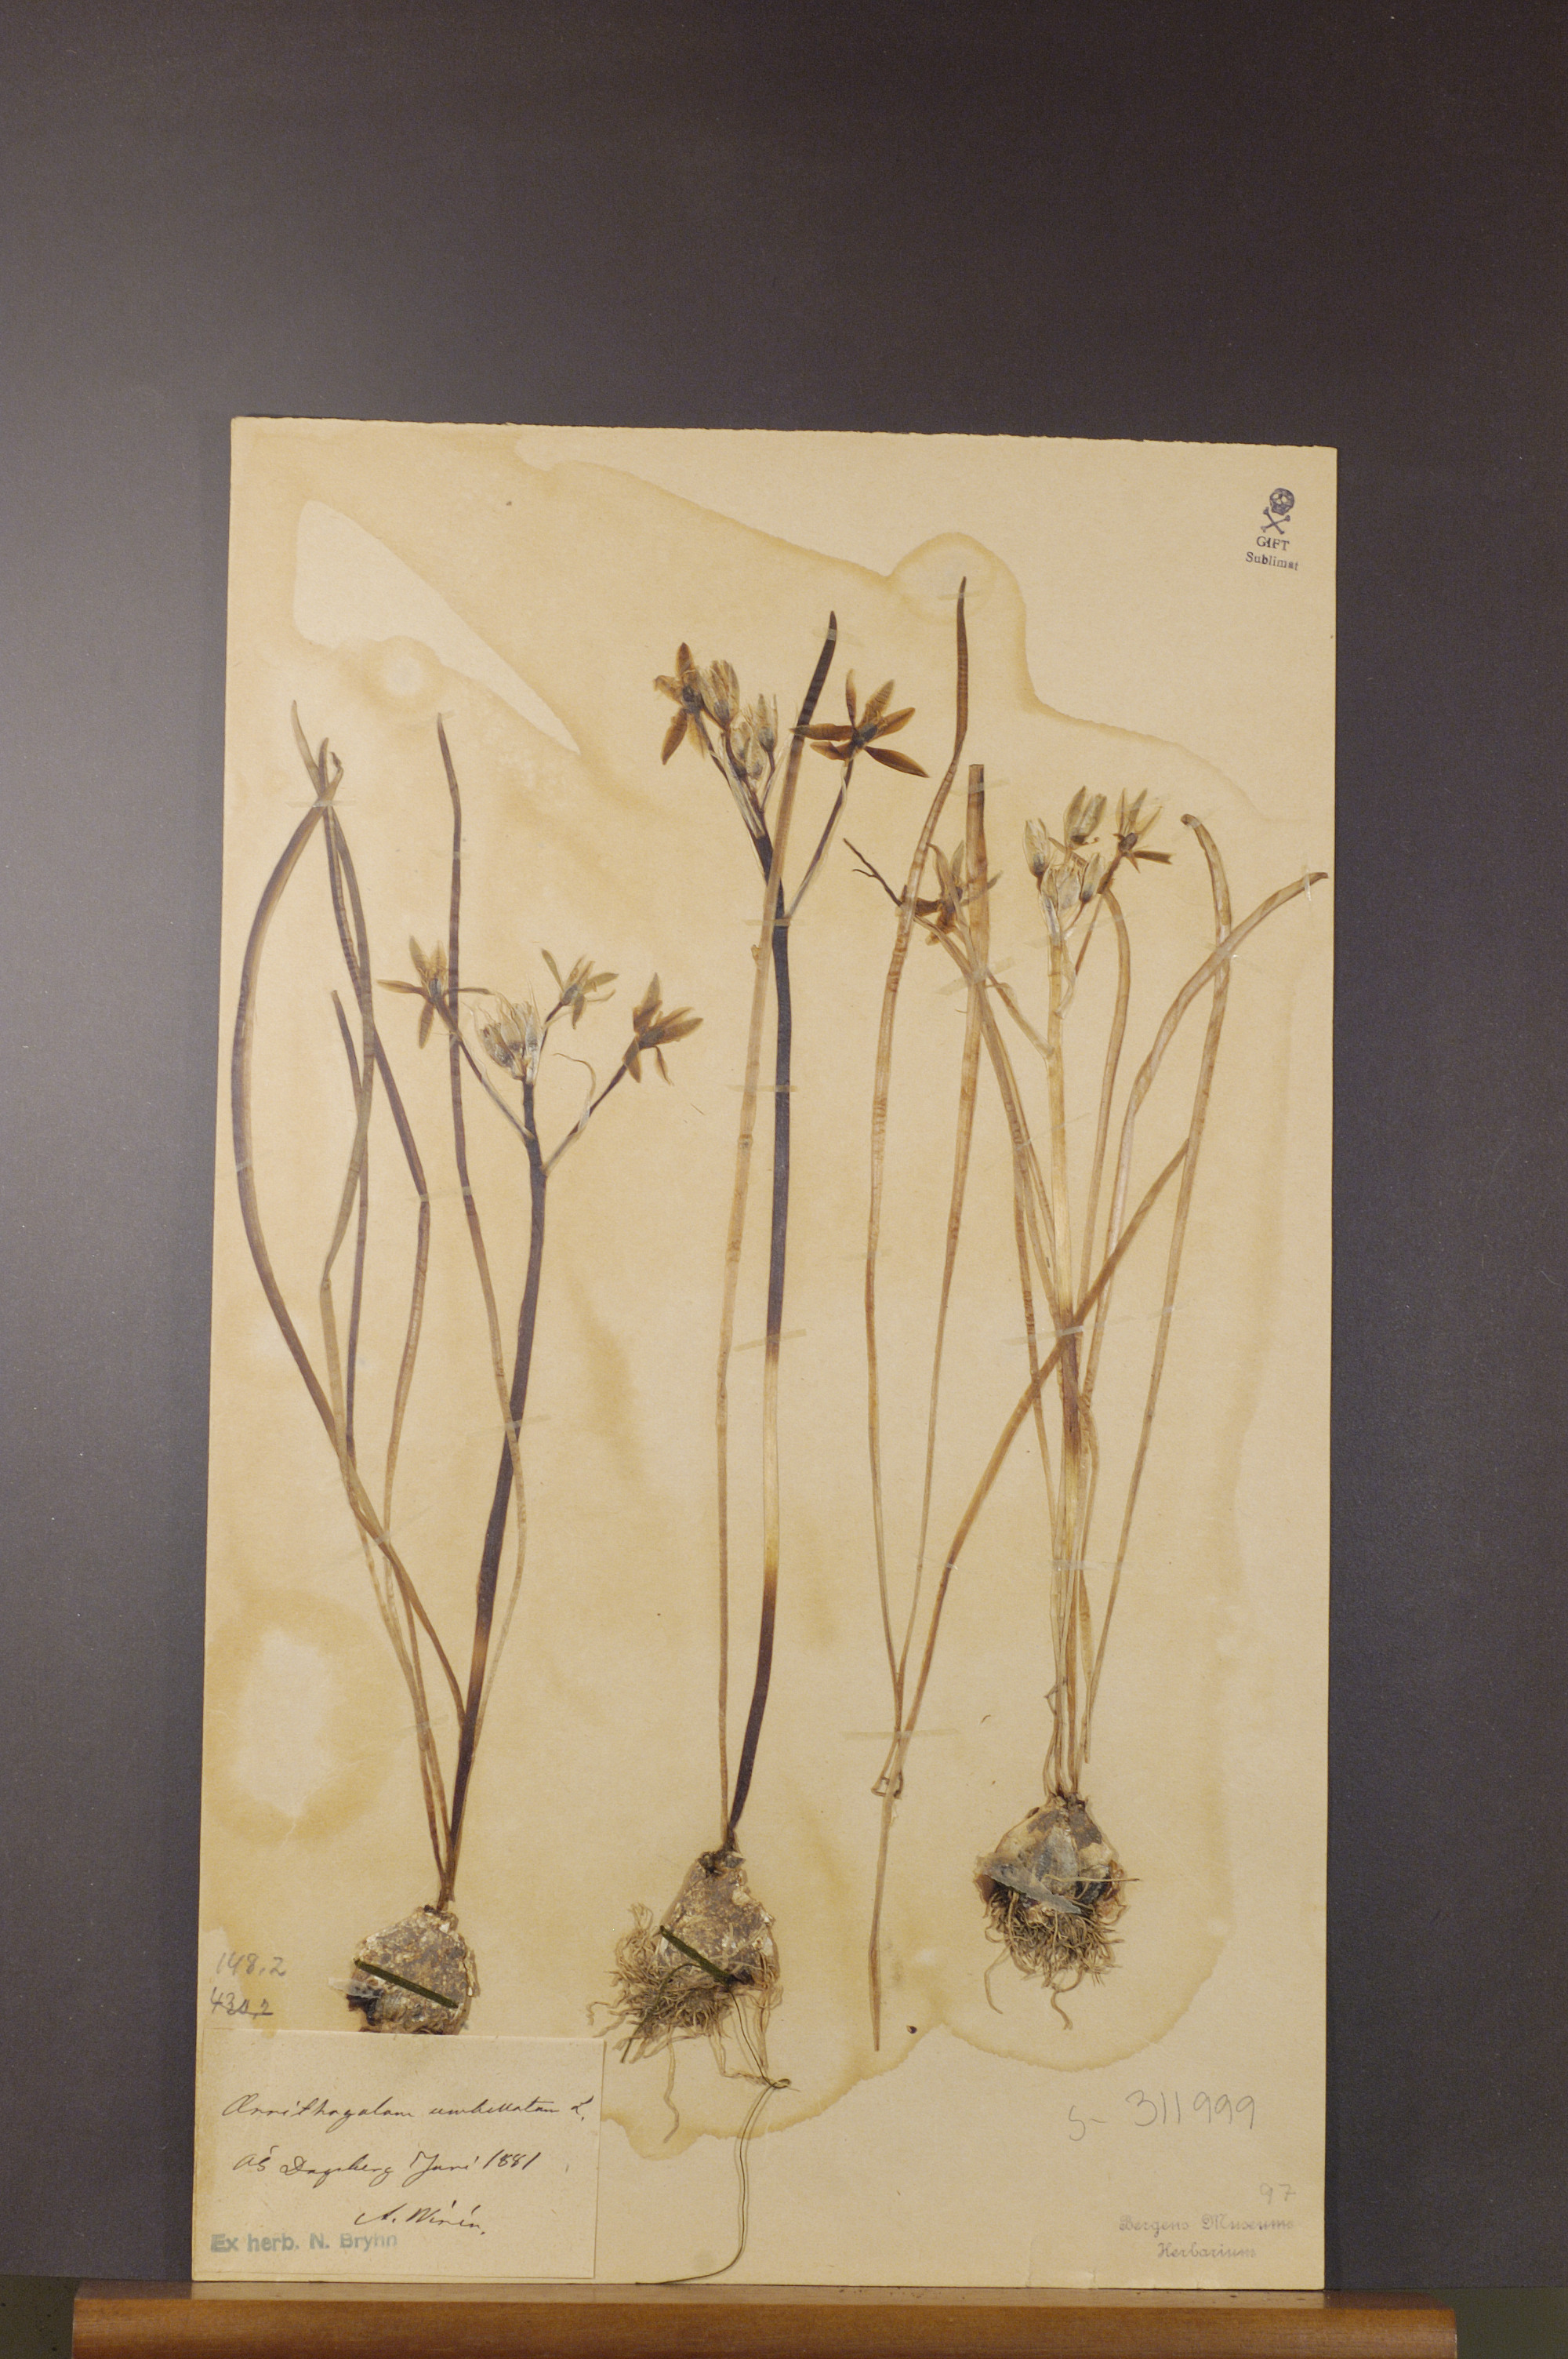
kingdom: Plantae
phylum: Tracheophyta
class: Liliopsida
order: Asparagales
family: Asparagaceae
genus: Ornithogalum
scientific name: Ornithogalum umbellatum
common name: Garden star-of-bethlehem
